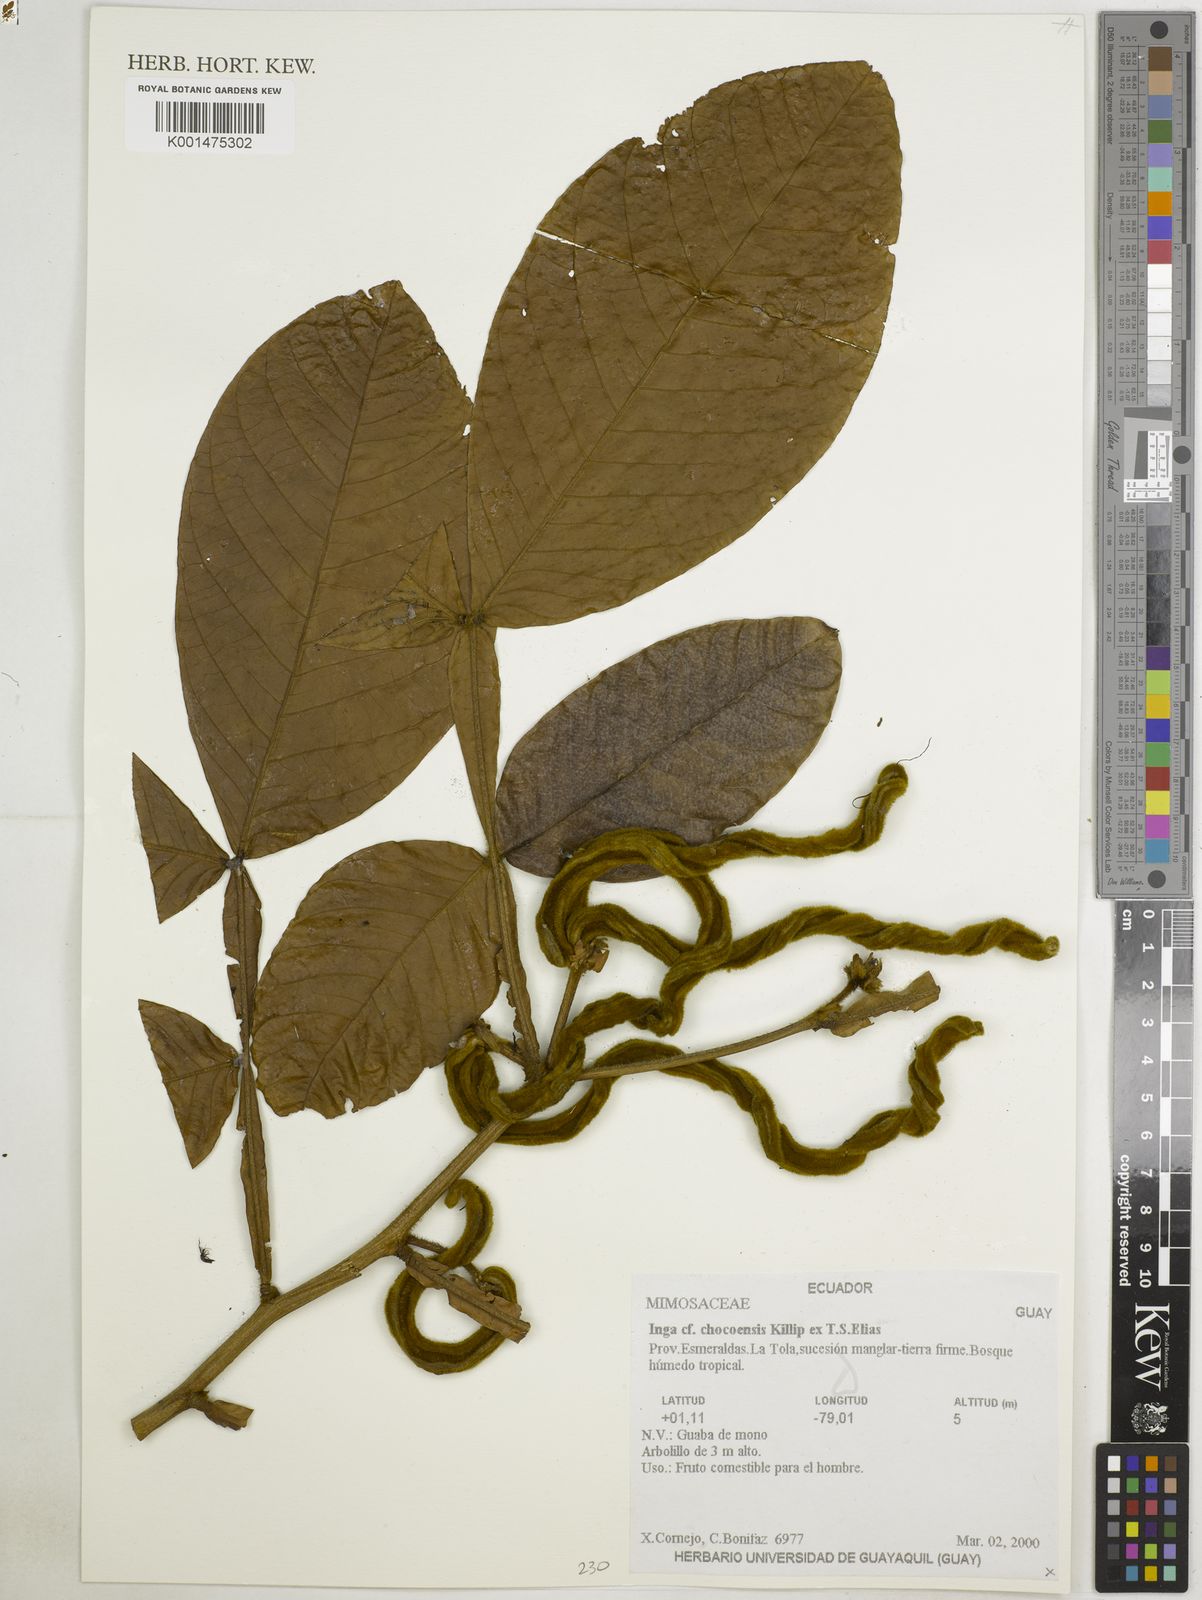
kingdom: Plantae
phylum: Tracheophyta
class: Magnoliopsida
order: Fabales
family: Fabaceae
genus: Inga
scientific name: Inga
